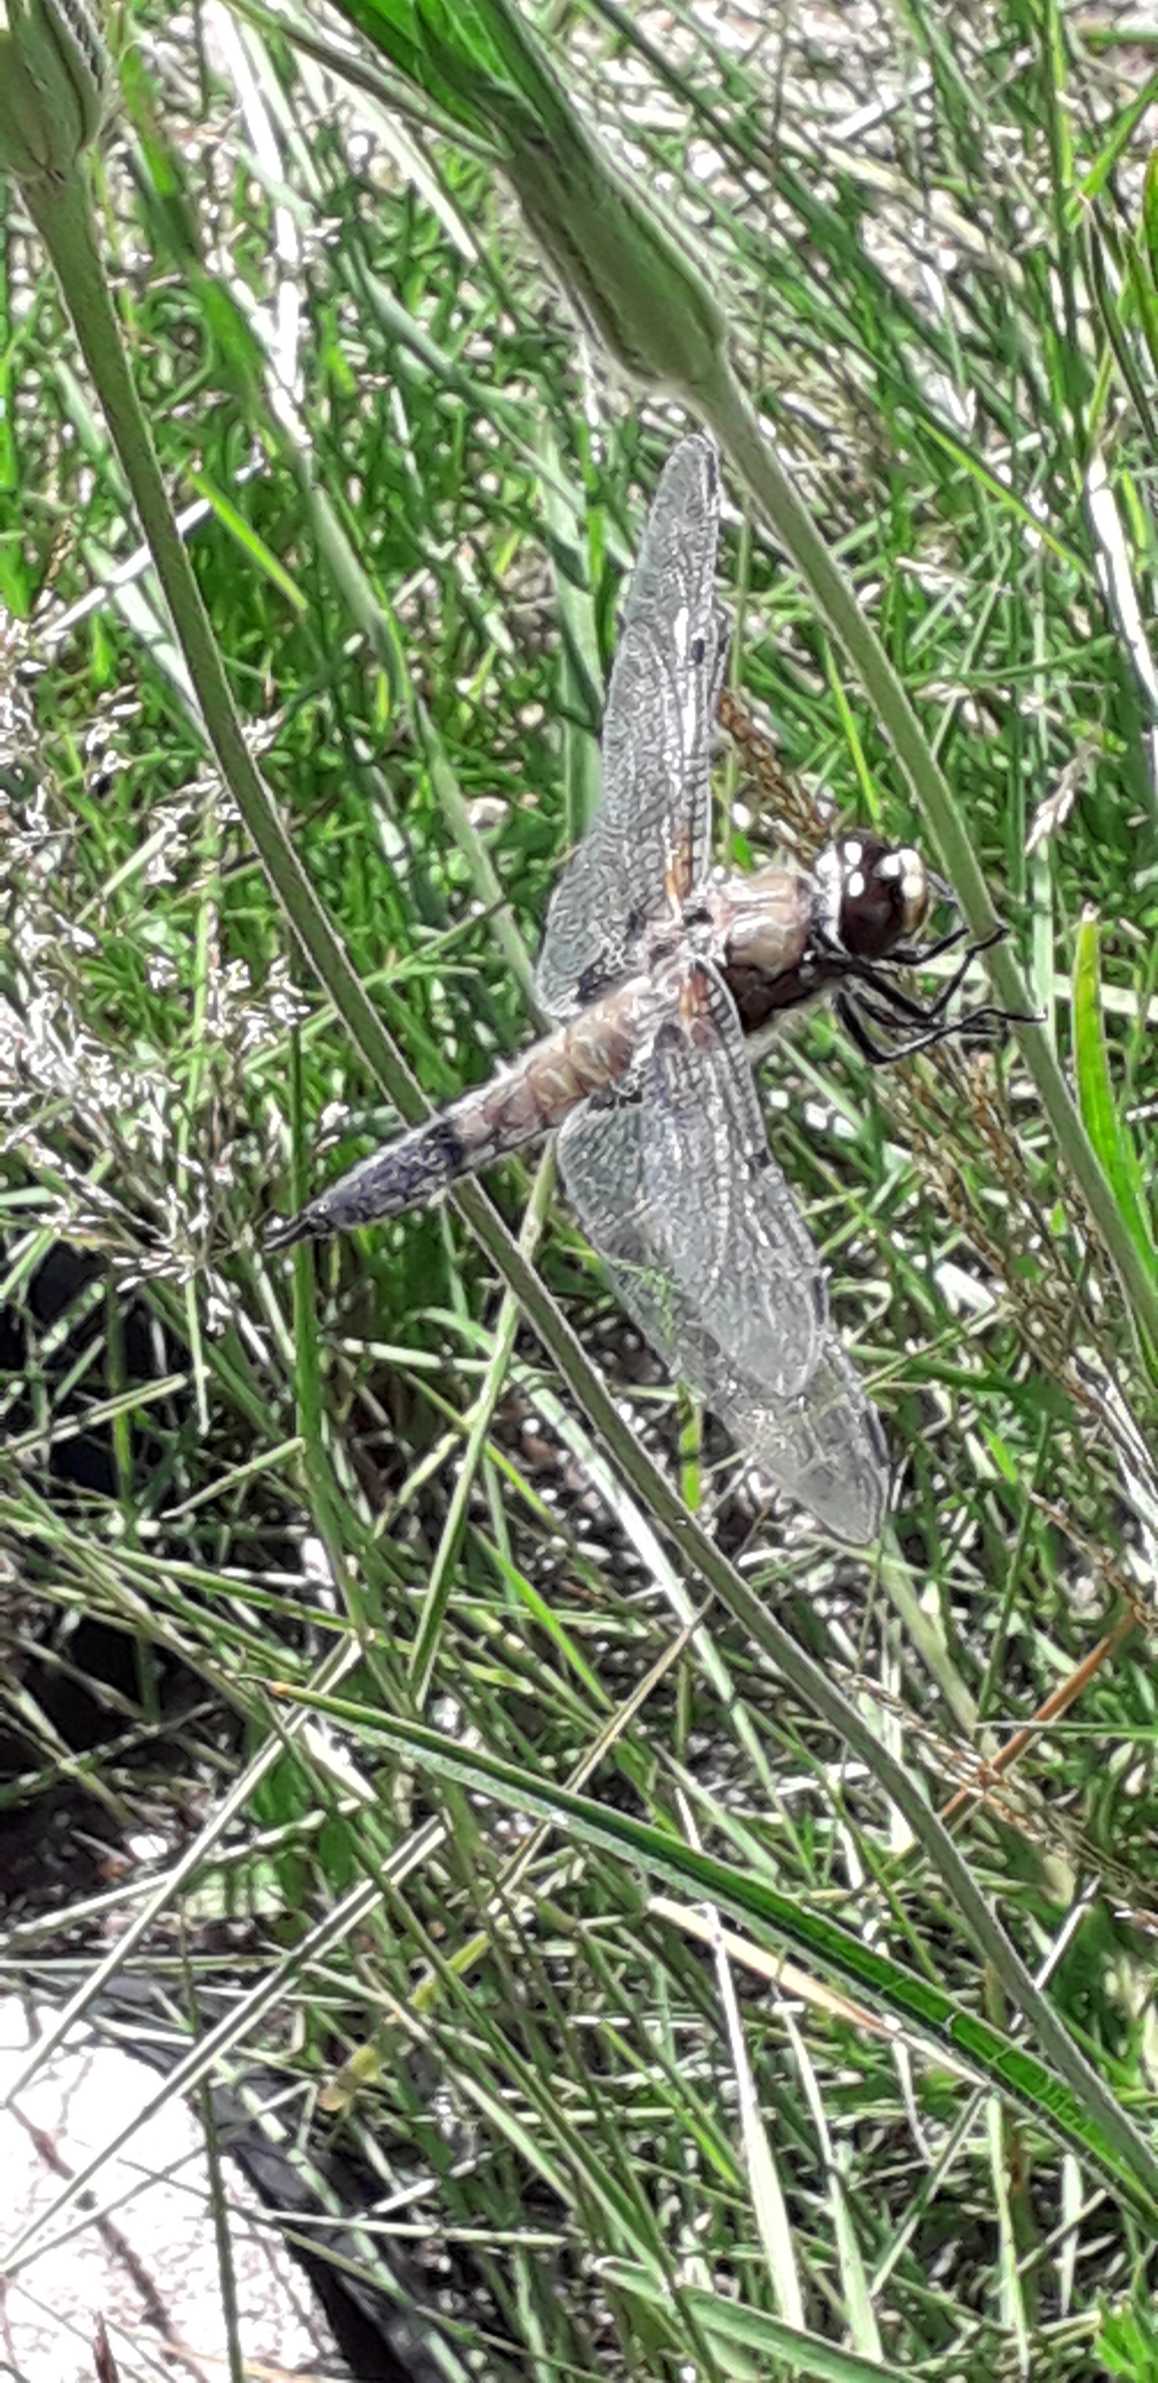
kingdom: Animalia
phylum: Arthropoda
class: Insecta
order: Odonata
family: Libellulidae
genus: Libellula
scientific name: Libellula quadrimaculata
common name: Fireplettet libel
